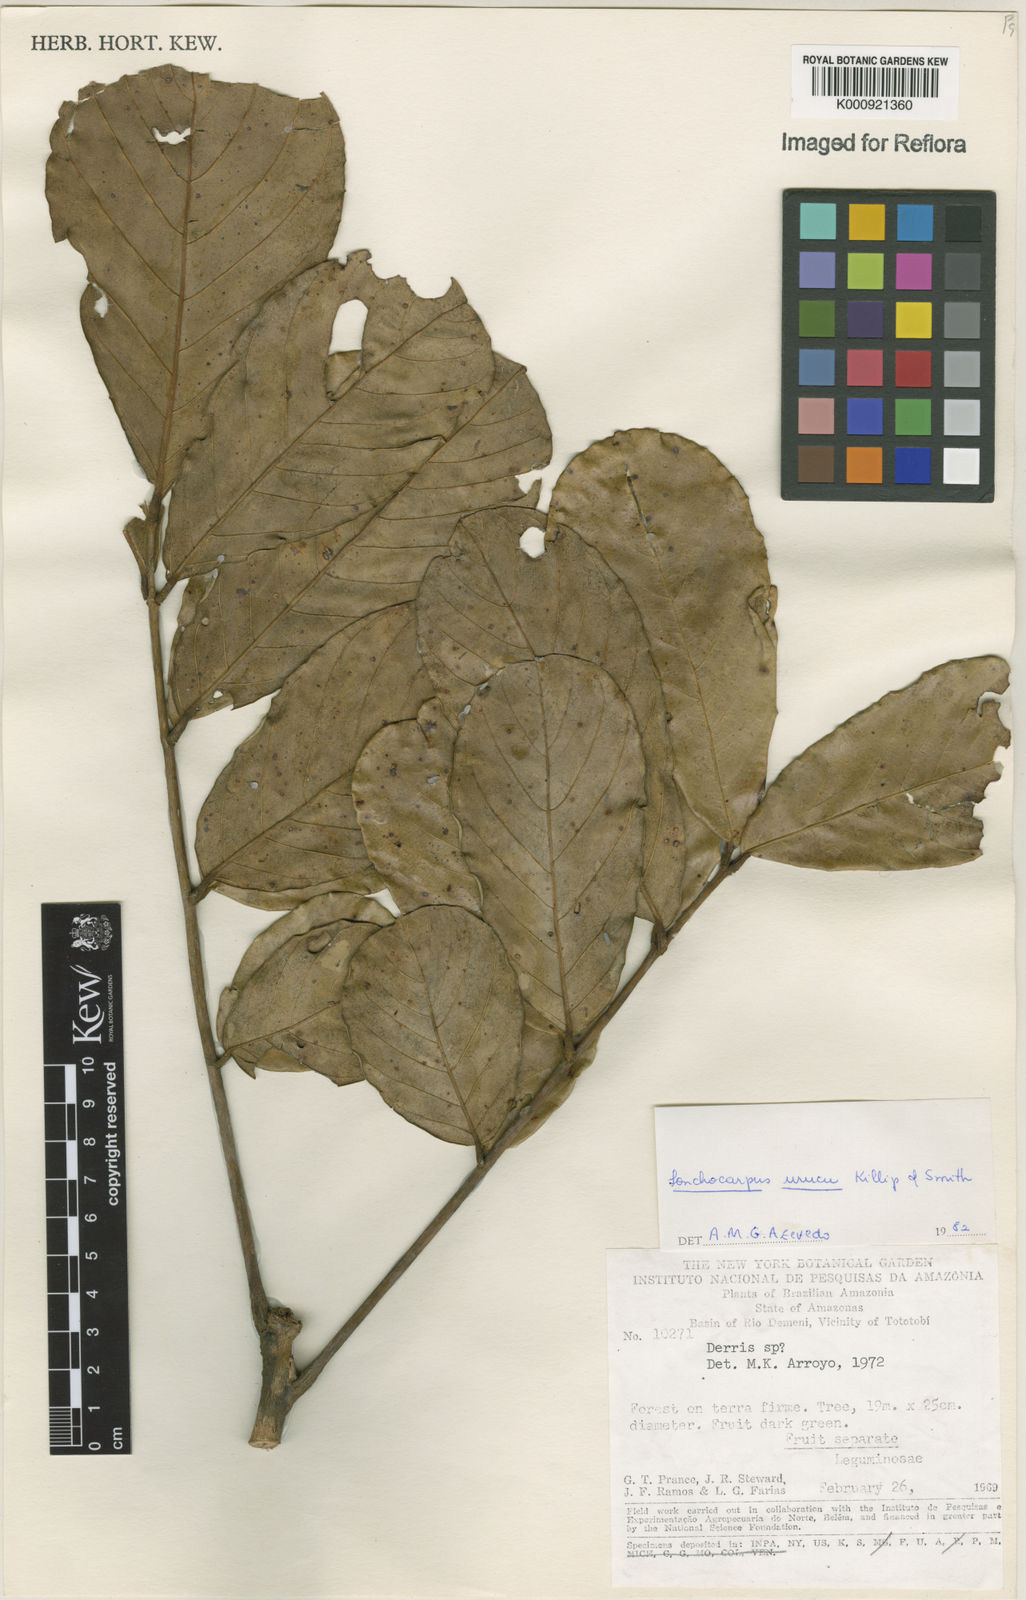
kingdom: Plantae
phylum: Tracheophyta
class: Magnoliopsida
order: Fabales
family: Fabaceae
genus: Deguelia
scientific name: Deguelia
